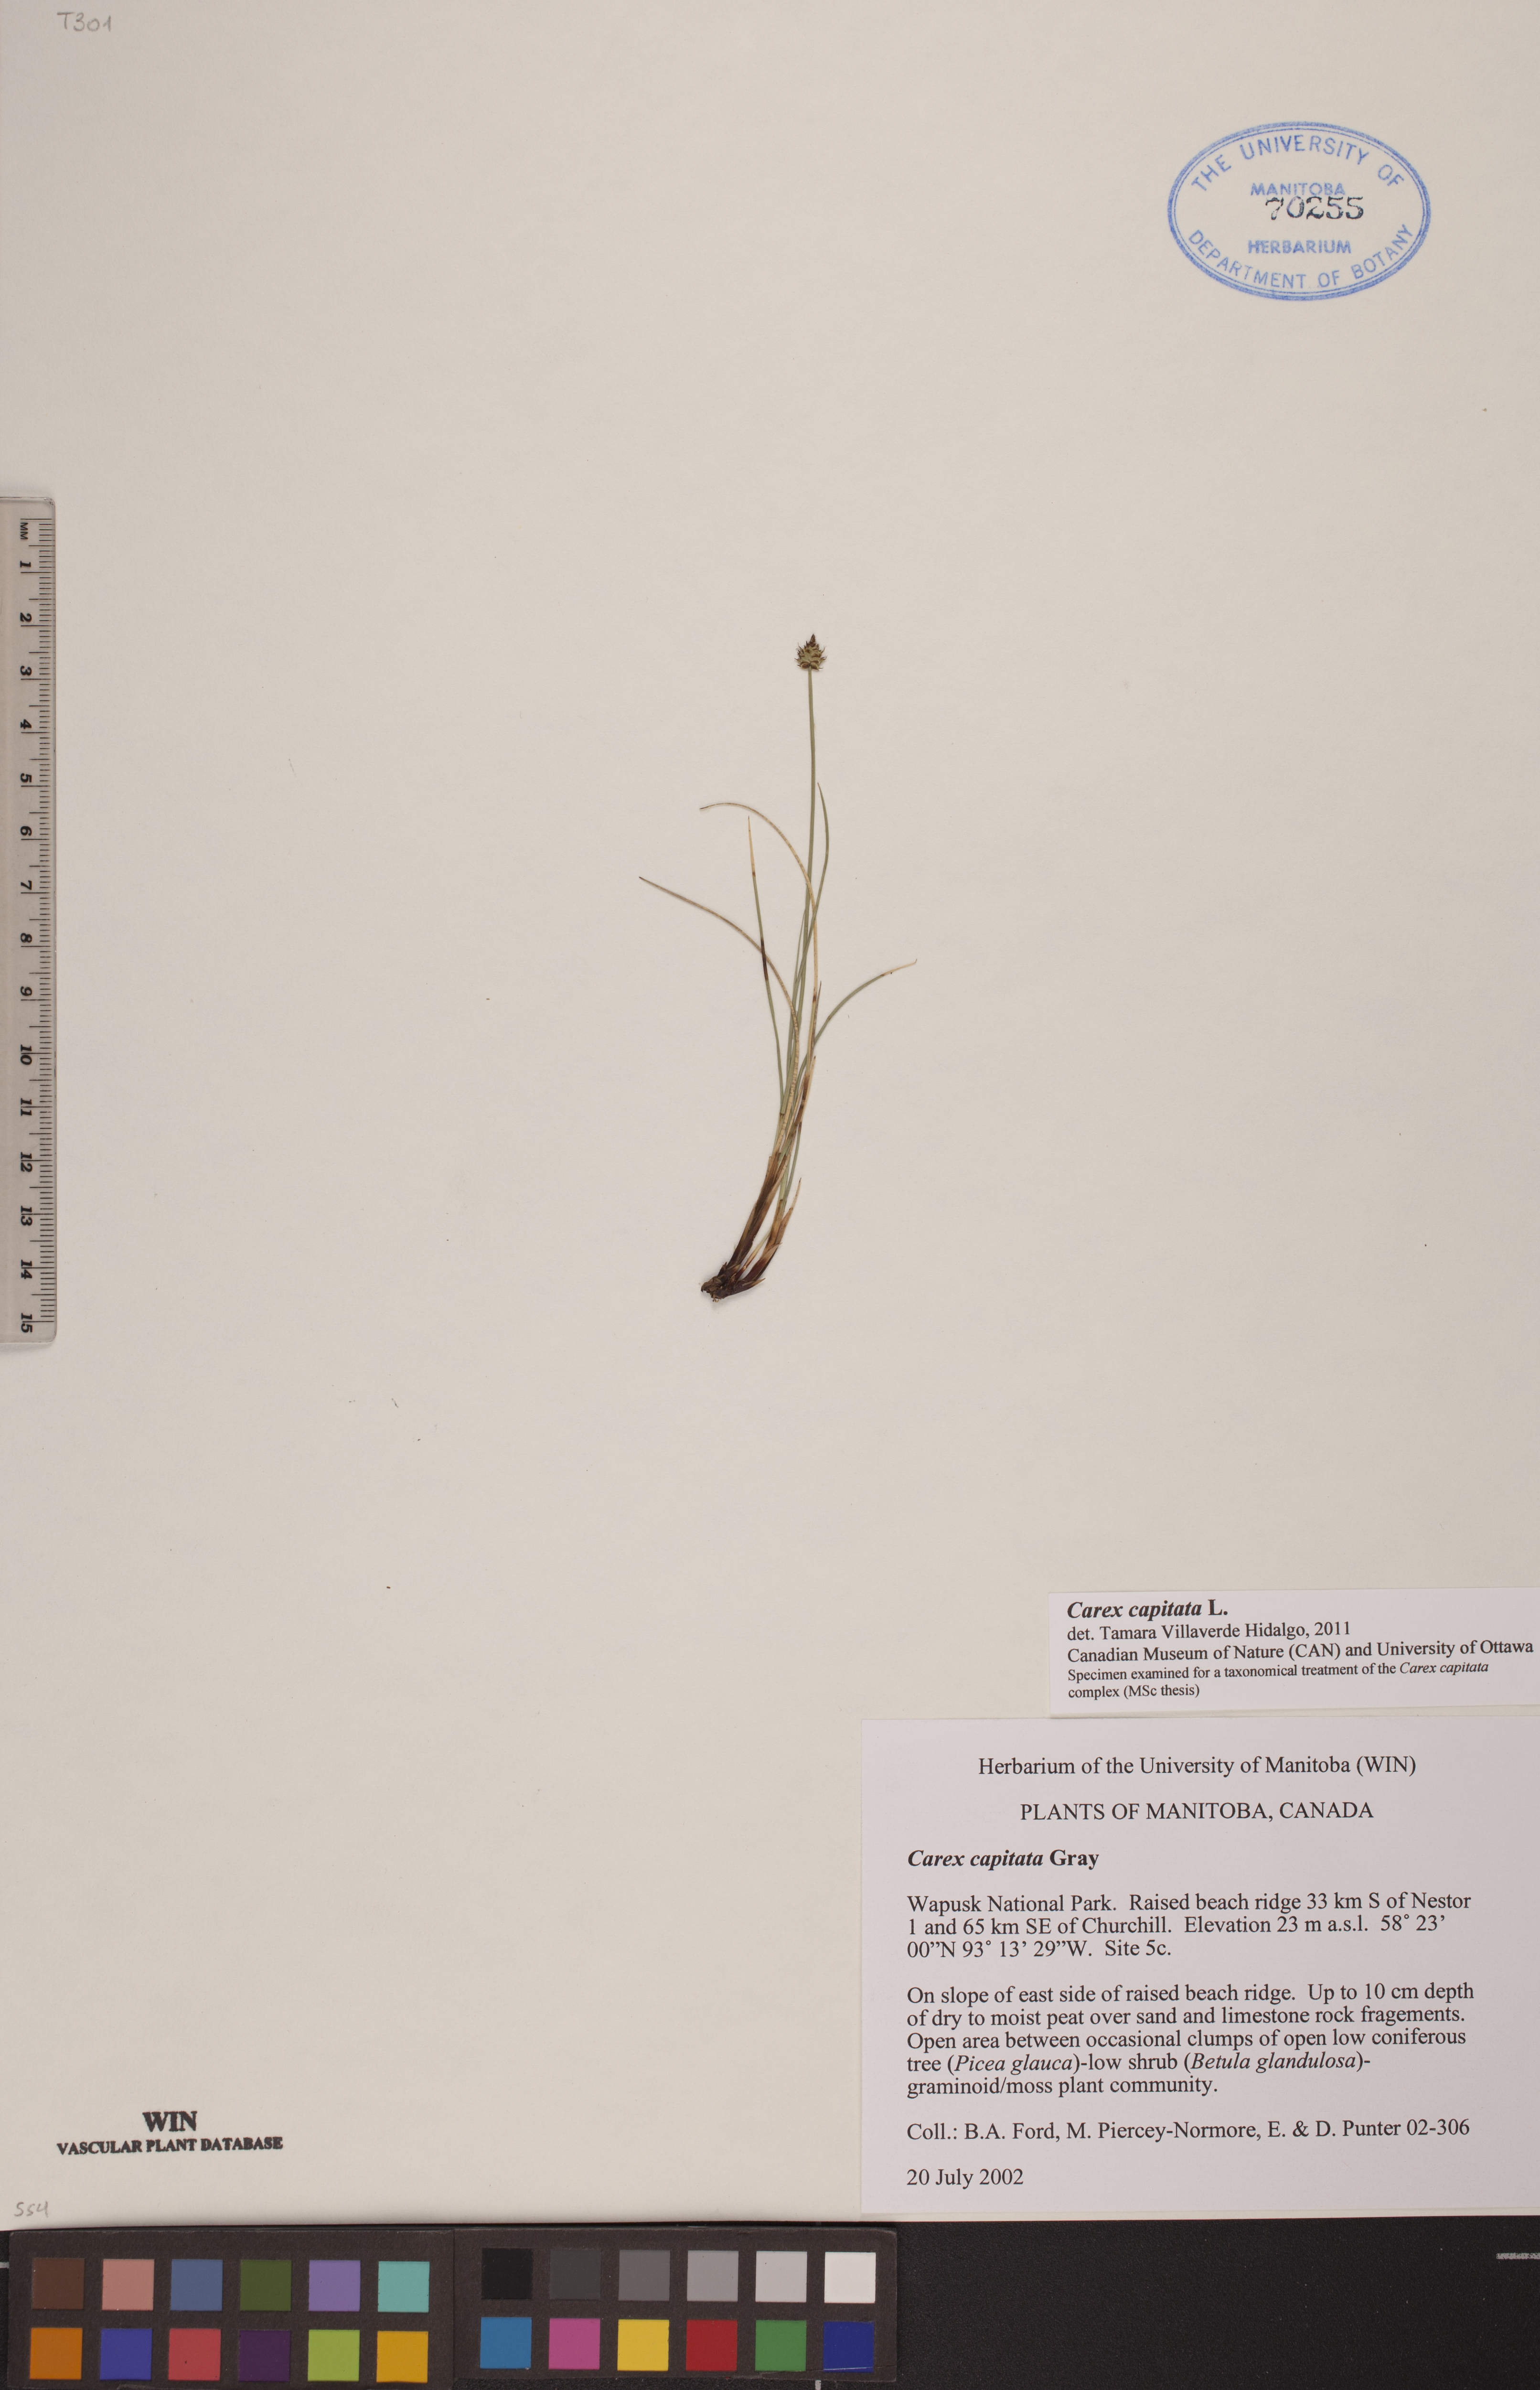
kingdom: Plantae
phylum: Tracheophyta
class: Liliopsida
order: Poales
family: Cyperaceae
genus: Carex
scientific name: Carex capitata
